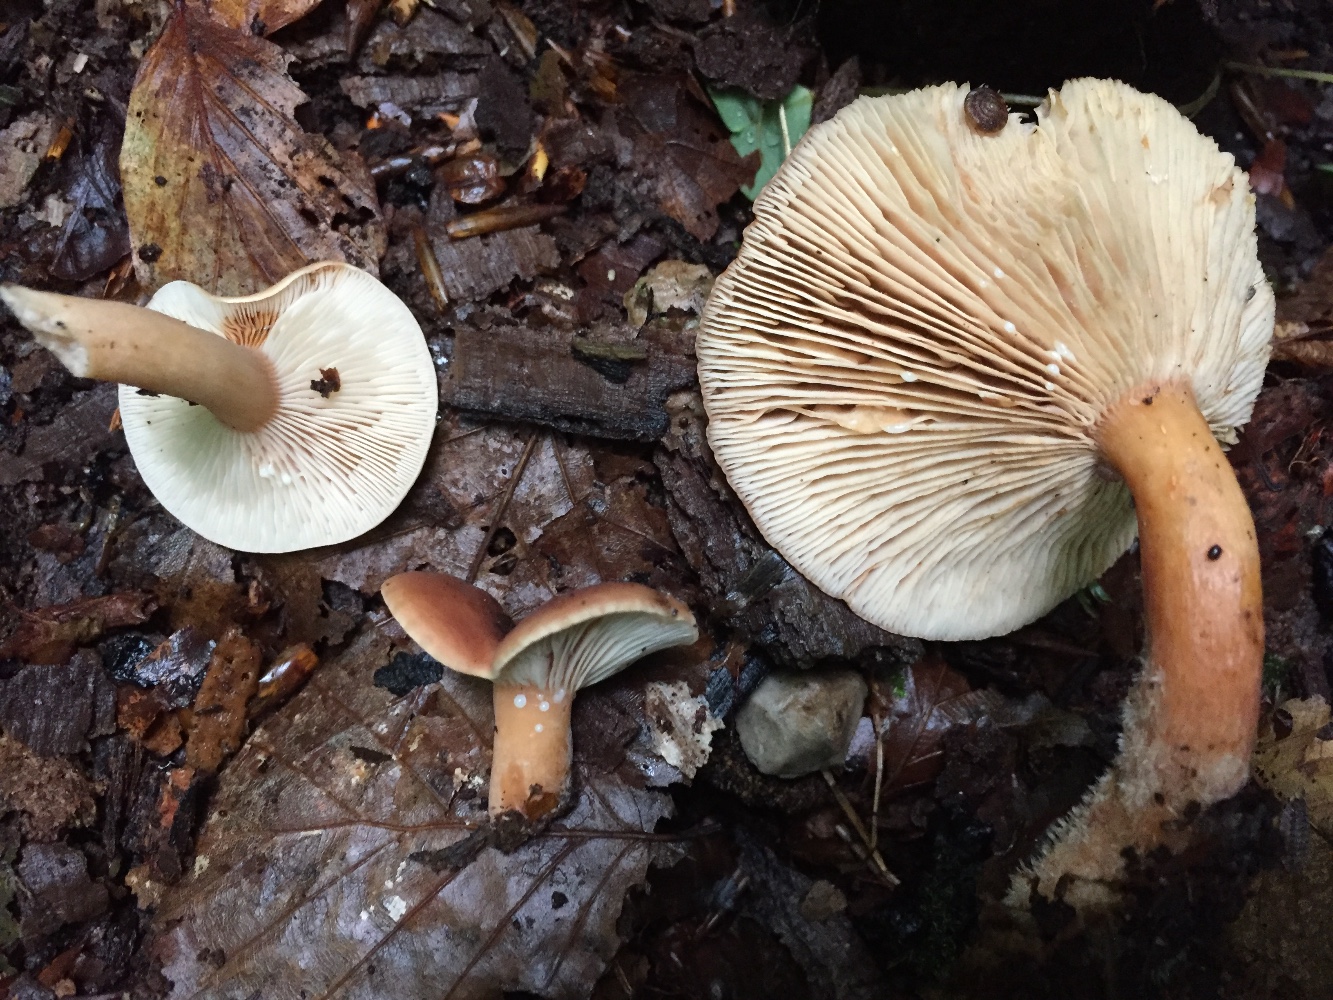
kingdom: Fungi
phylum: Basidiomycota
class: Agaricomycetes
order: Russulales
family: Russulaceae
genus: Lactarius
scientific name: Lactarius subdulcis
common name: sødlig mælkehat
